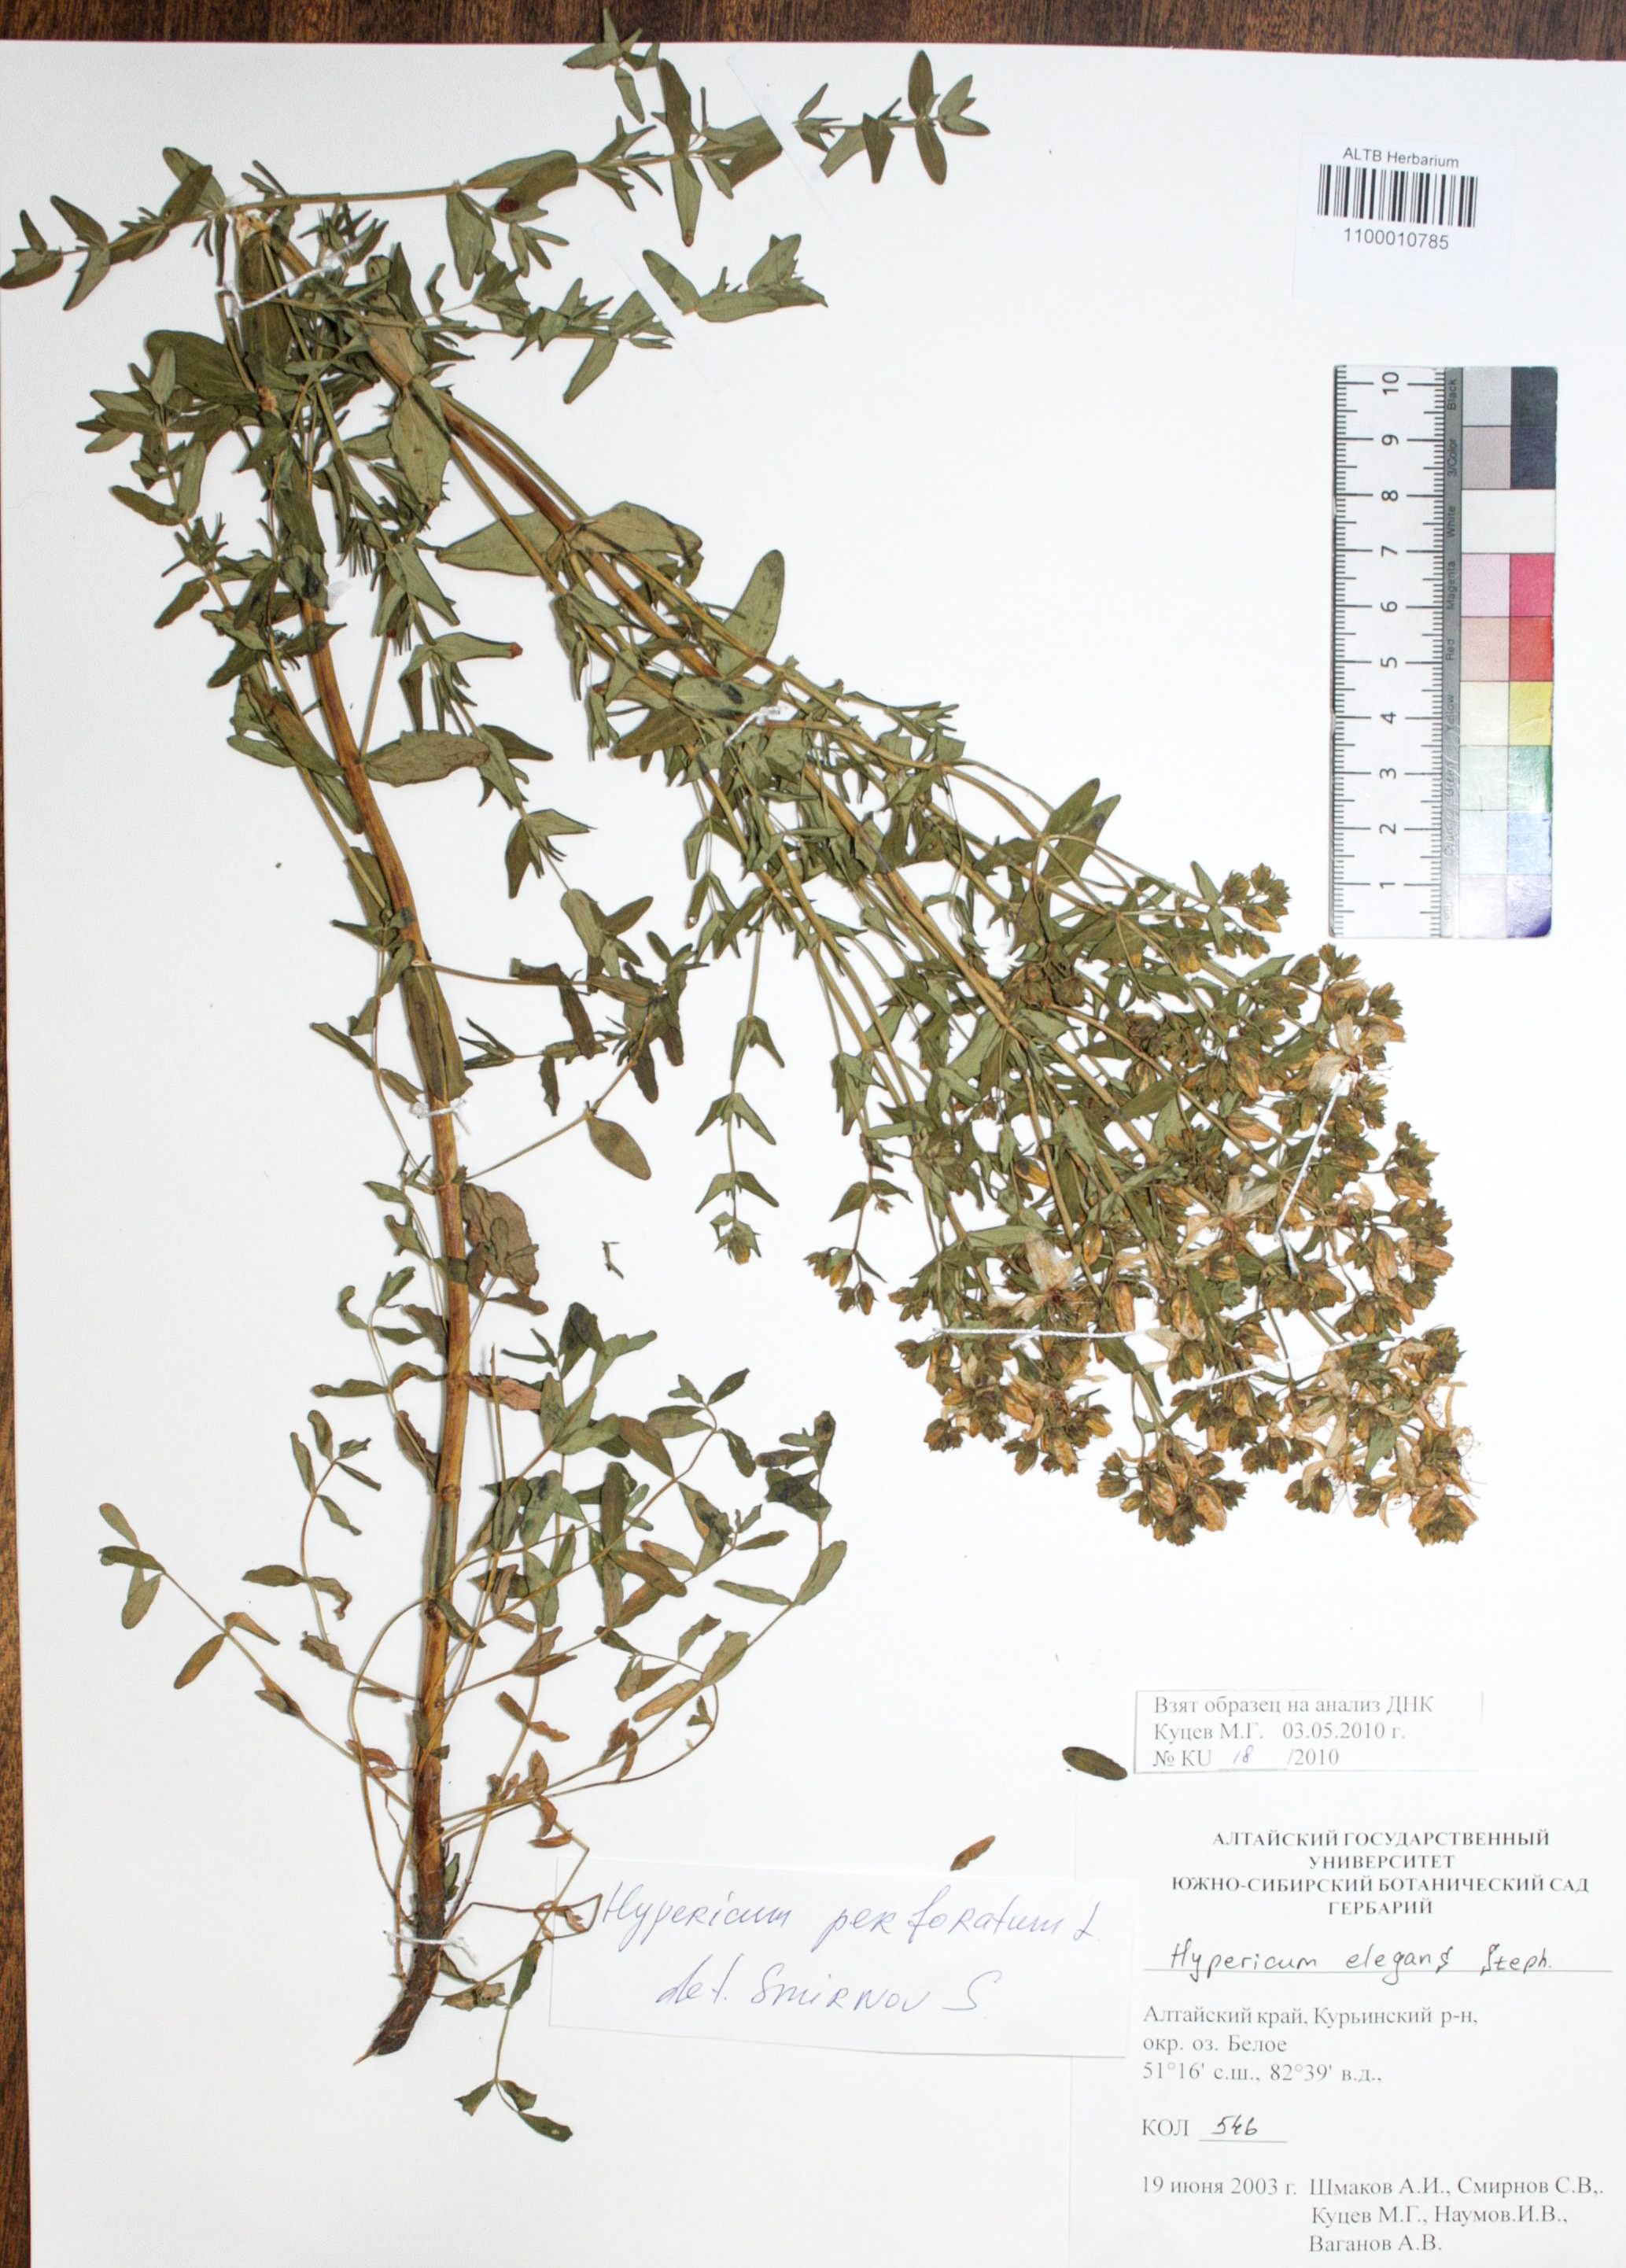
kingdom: Plantae
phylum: Tracheophyta
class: Magnoliopsida
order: Malpighiales
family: Hypericaceae
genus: Hypericum
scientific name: Hypericum perforatum
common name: Common st. johnswort
